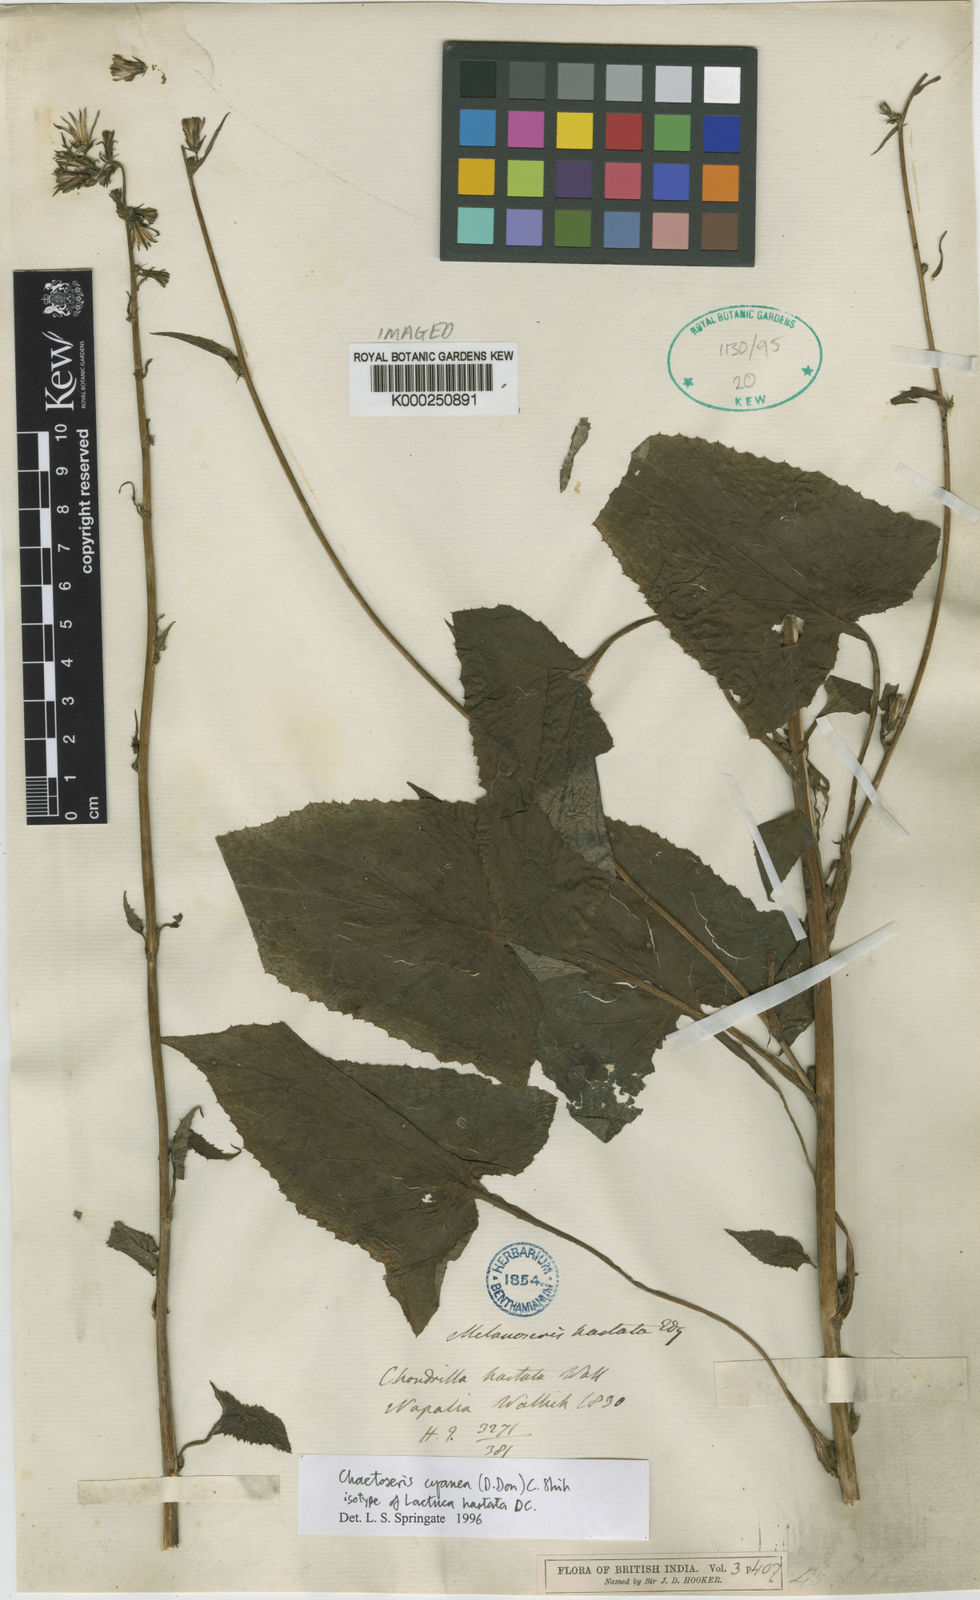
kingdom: Plantae
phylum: Tracheophyta
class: Magnoliopsida
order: Asterales
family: Asteraceae
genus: Melanoseris
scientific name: Melanoseris cyanea
